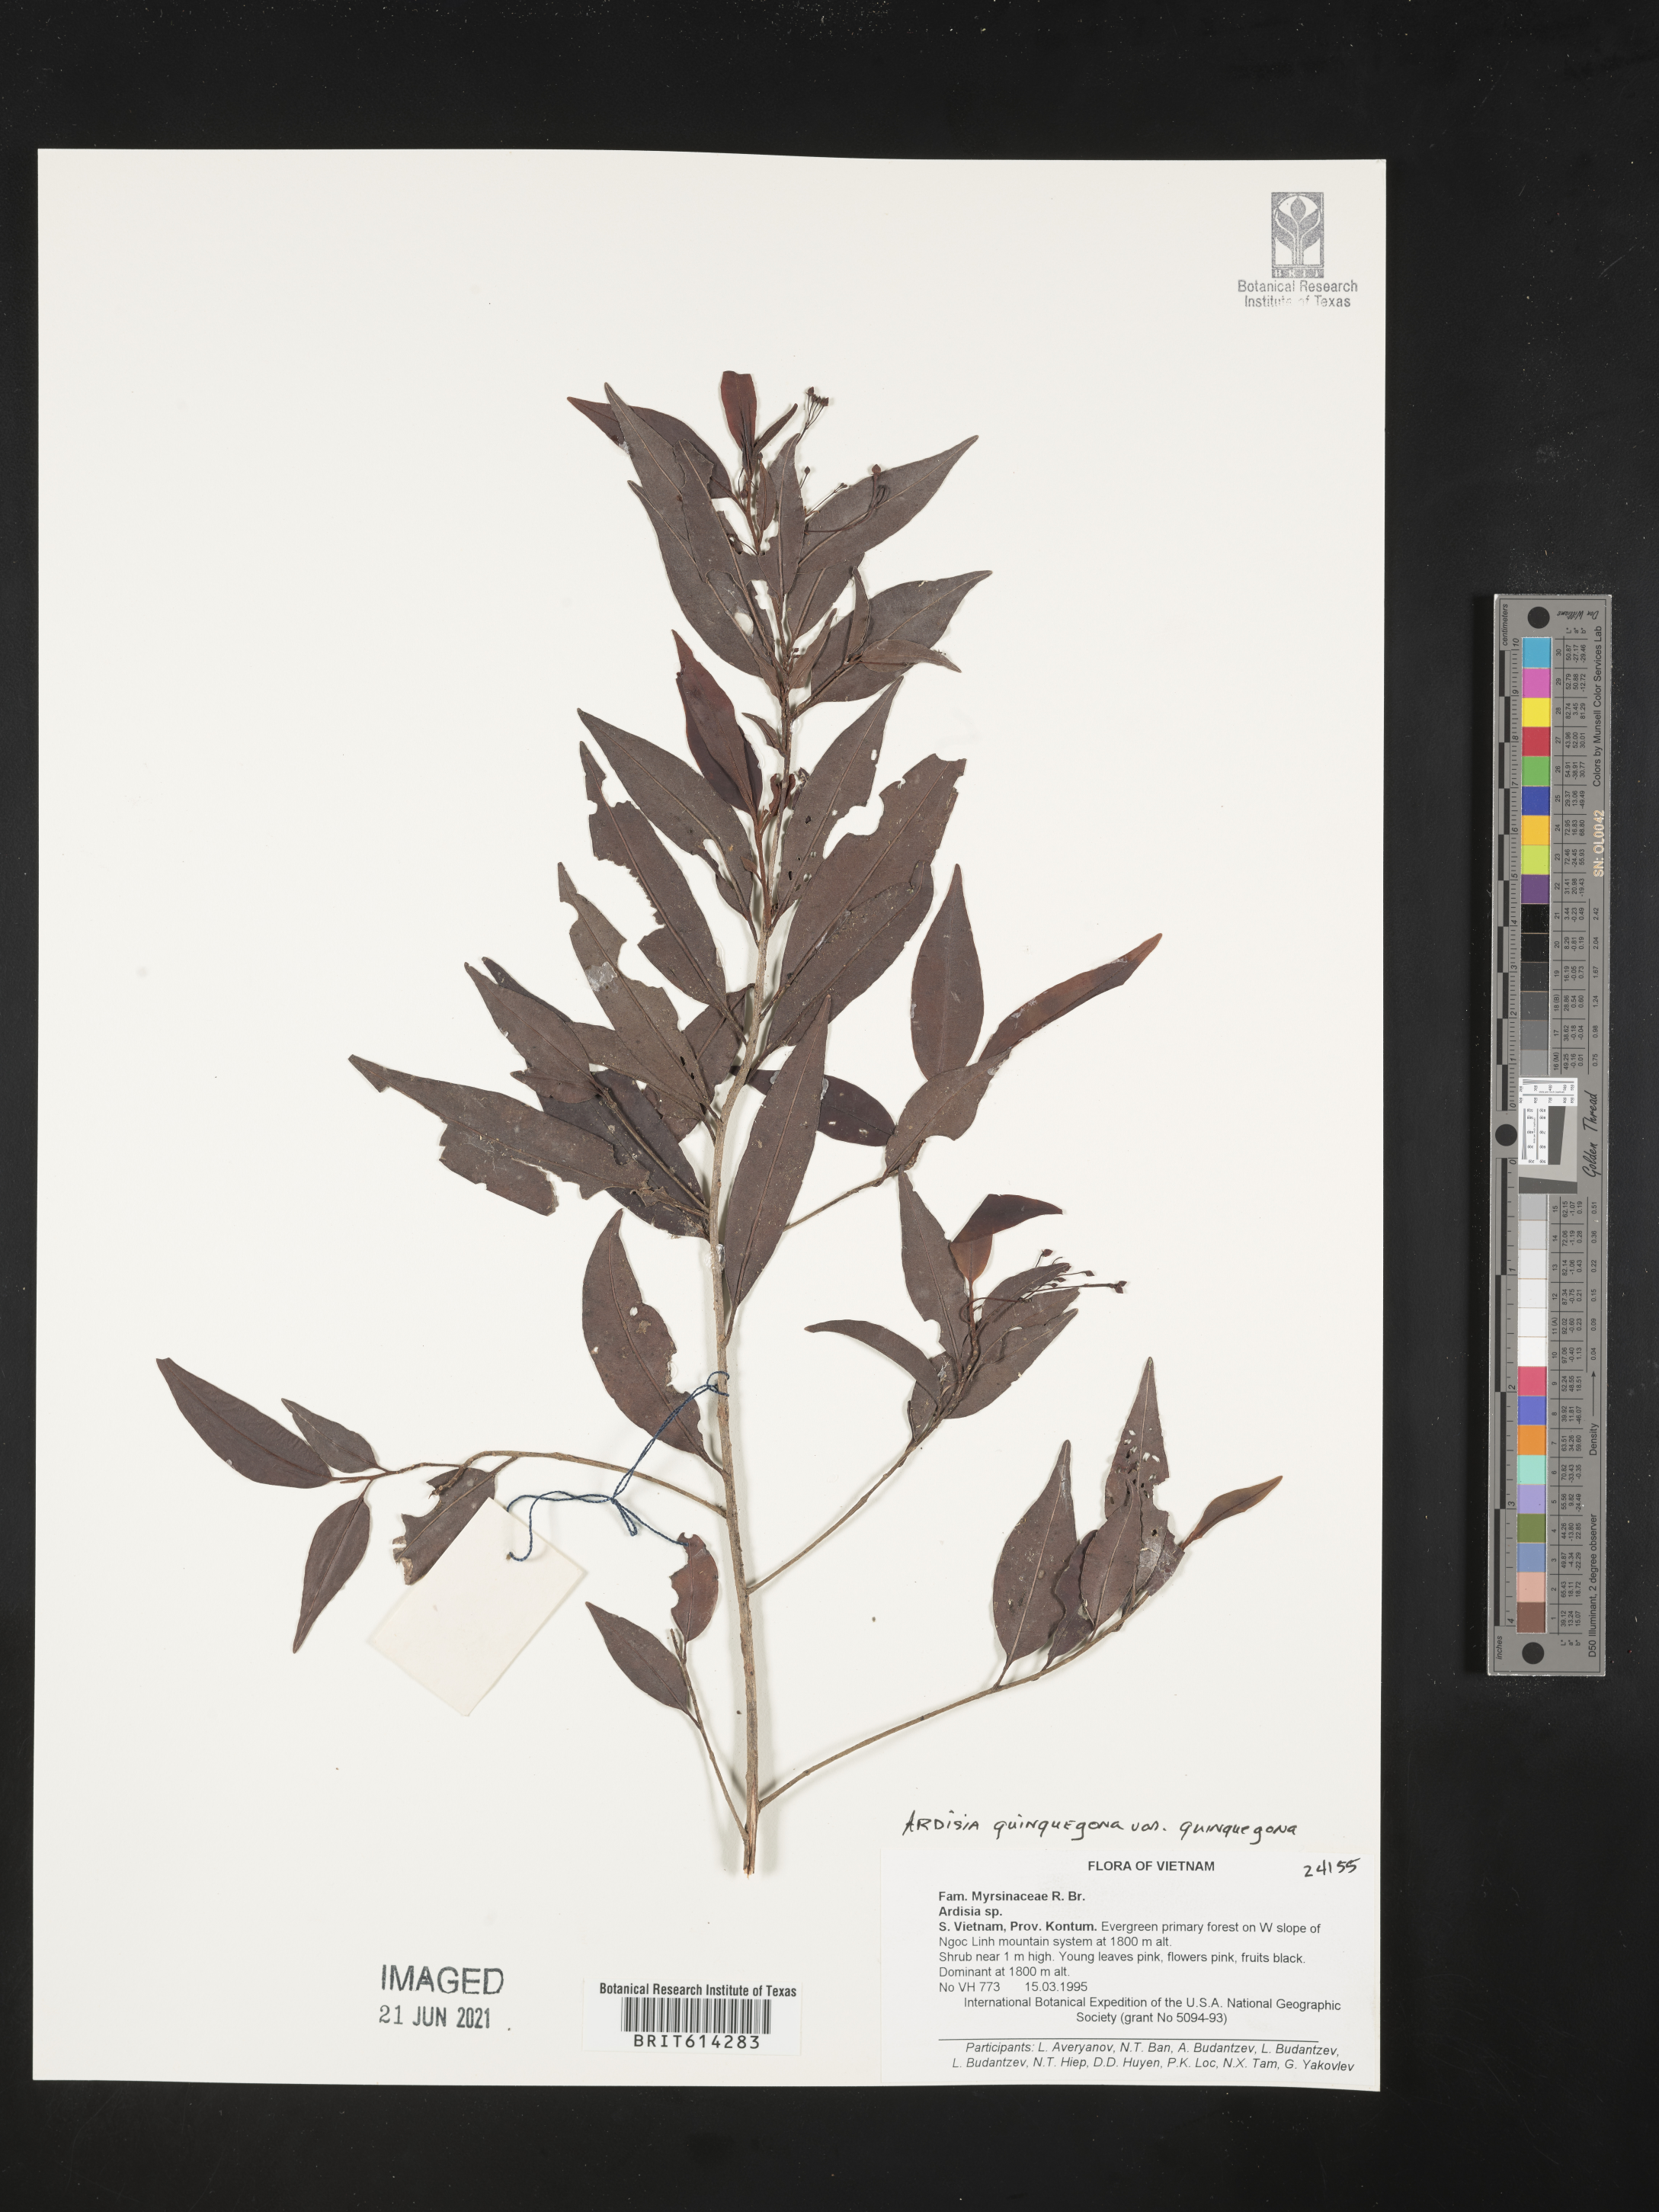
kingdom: Plantae
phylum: Tracheophyta
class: Magnoliopsida
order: Ericales
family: Primulaceae
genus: Ardisia
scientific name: Ardisia quinquegona
